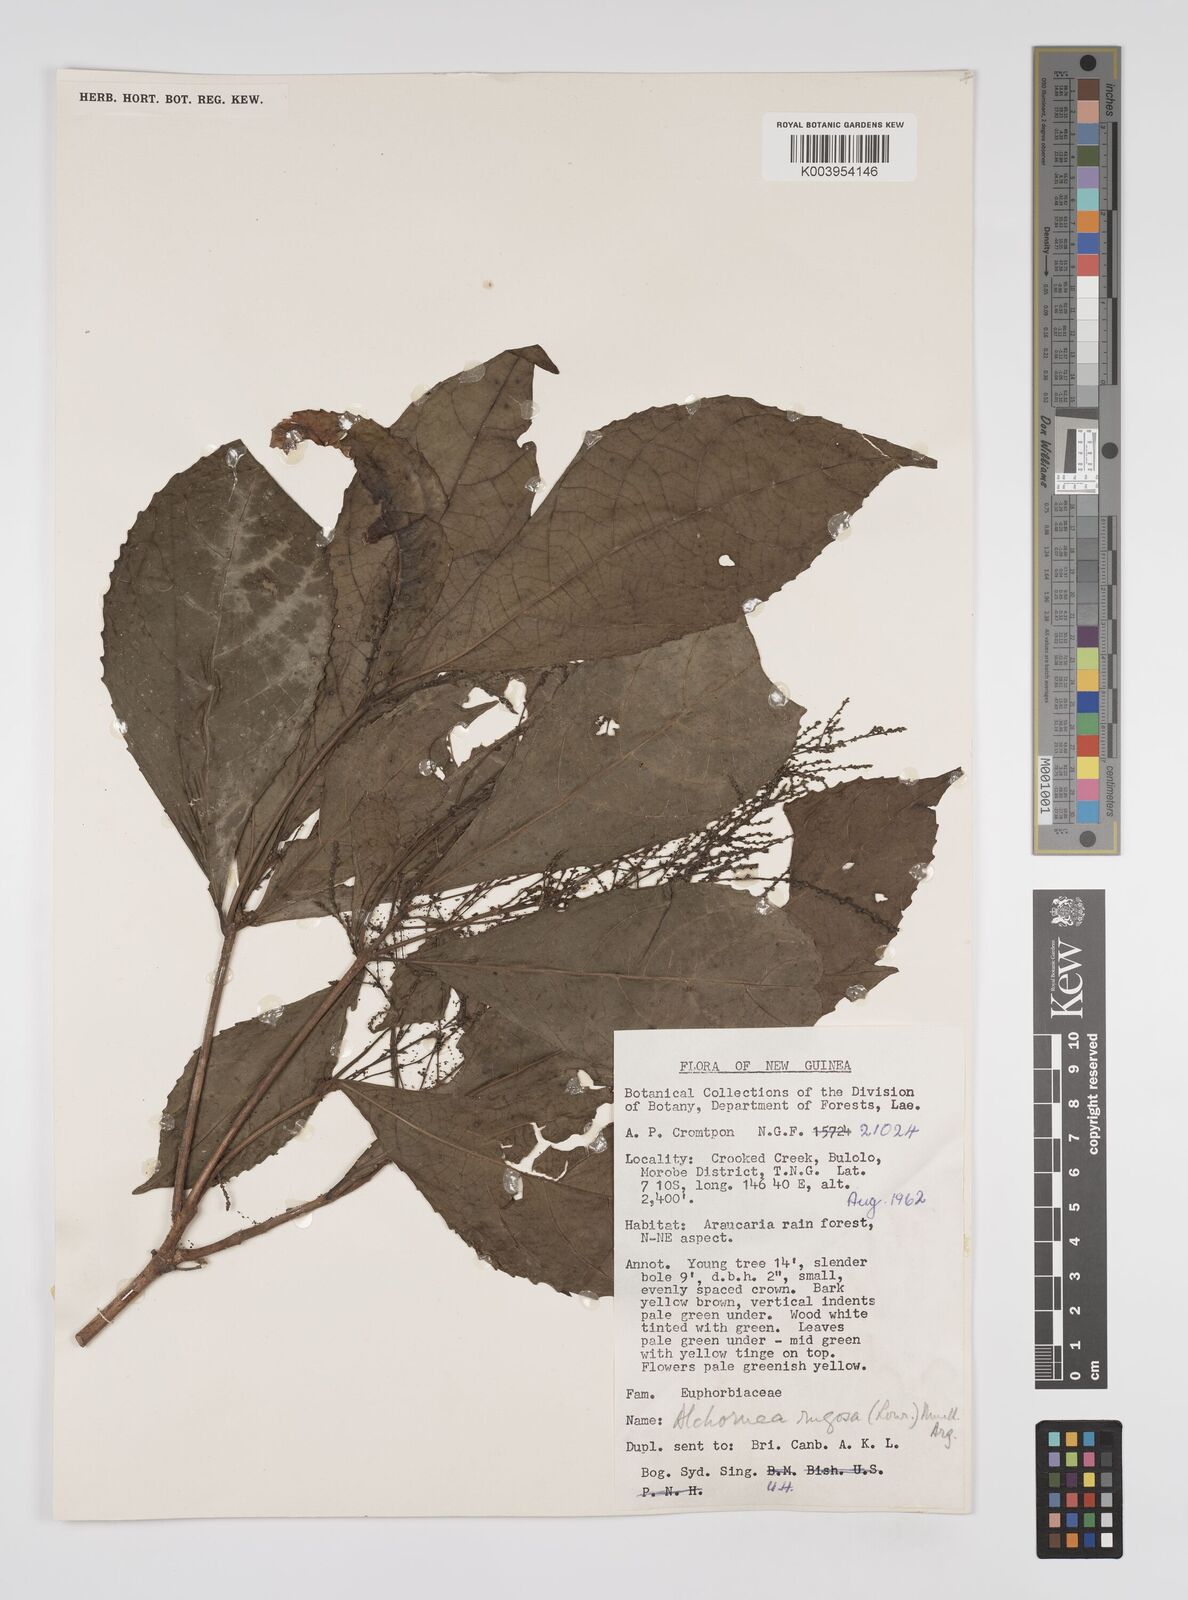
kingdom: Plantae
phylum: Tracheophyta
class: Magnoliopsida
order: Malpighiales
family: Euphorbiaceae
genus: Alchornea
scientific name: Alchornea rugosa
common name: Alchorntree
